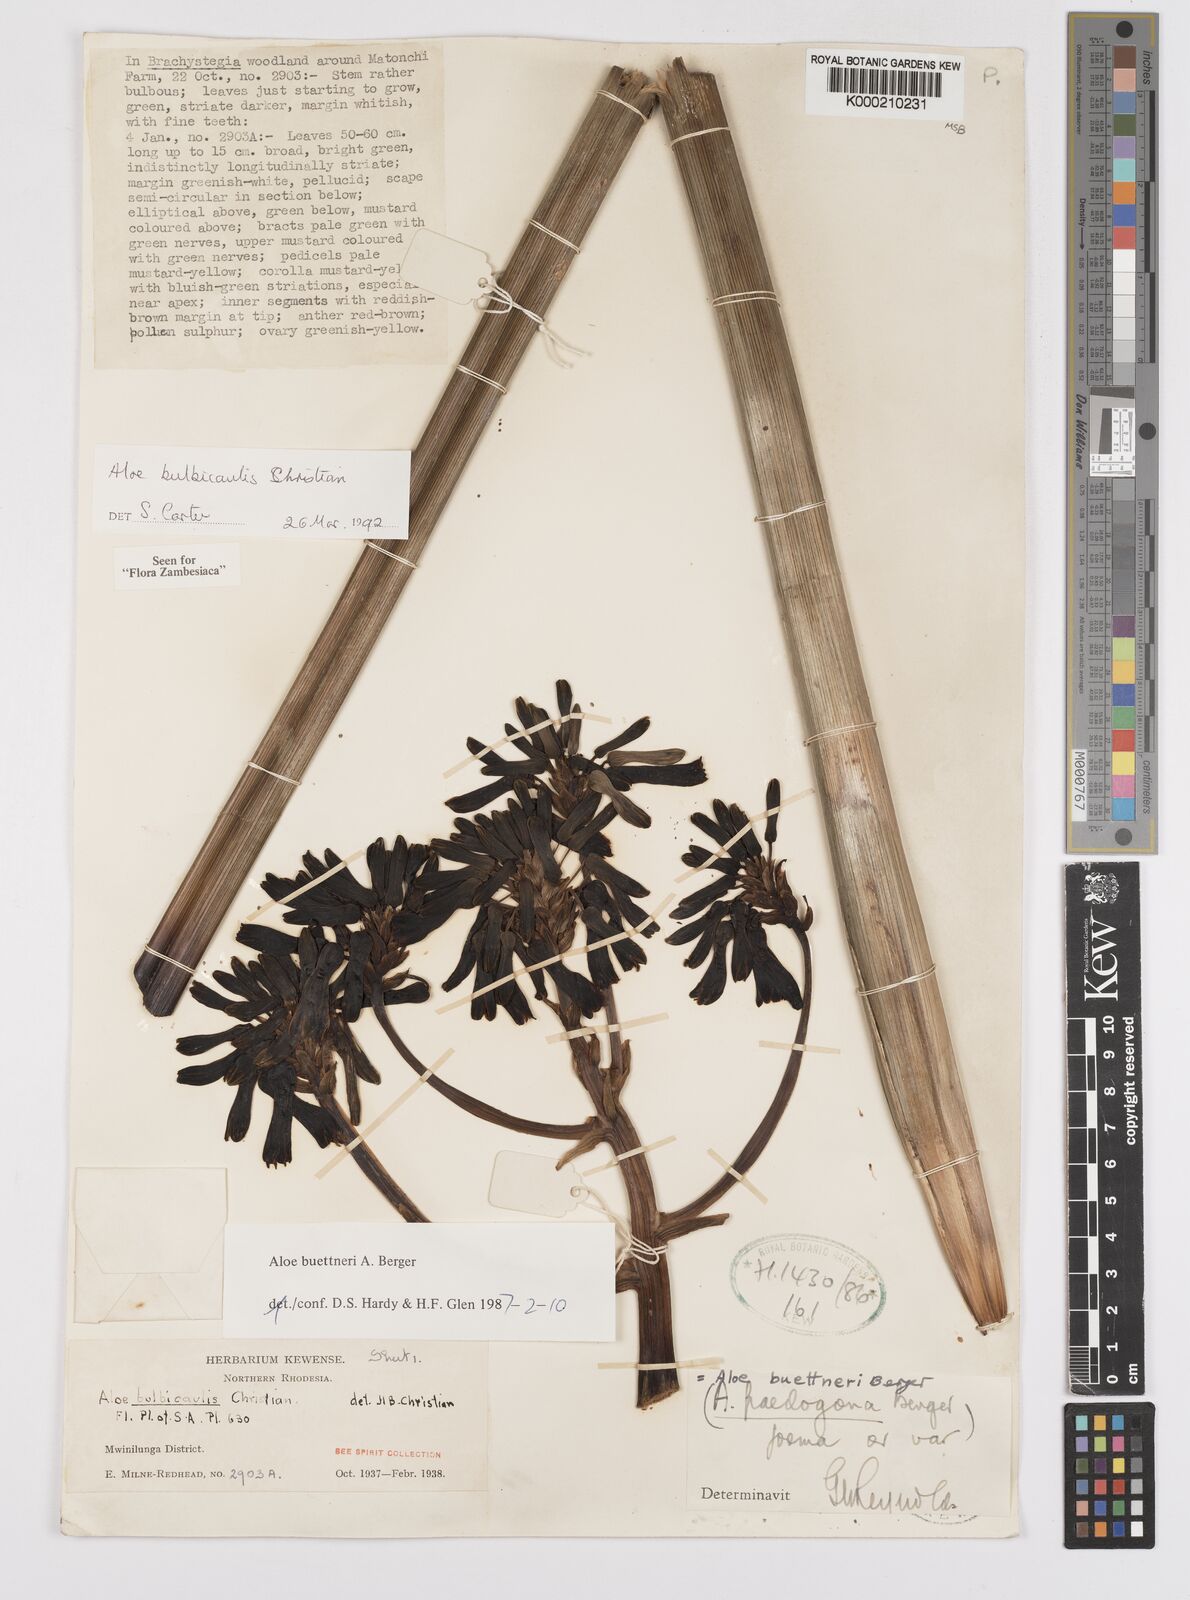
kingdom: Plantae
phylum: Tracheophyta
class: Liliopsida
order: Asparagales
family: Asphodelaceae
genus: Aloe
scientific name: Aloe bulbicaulis
